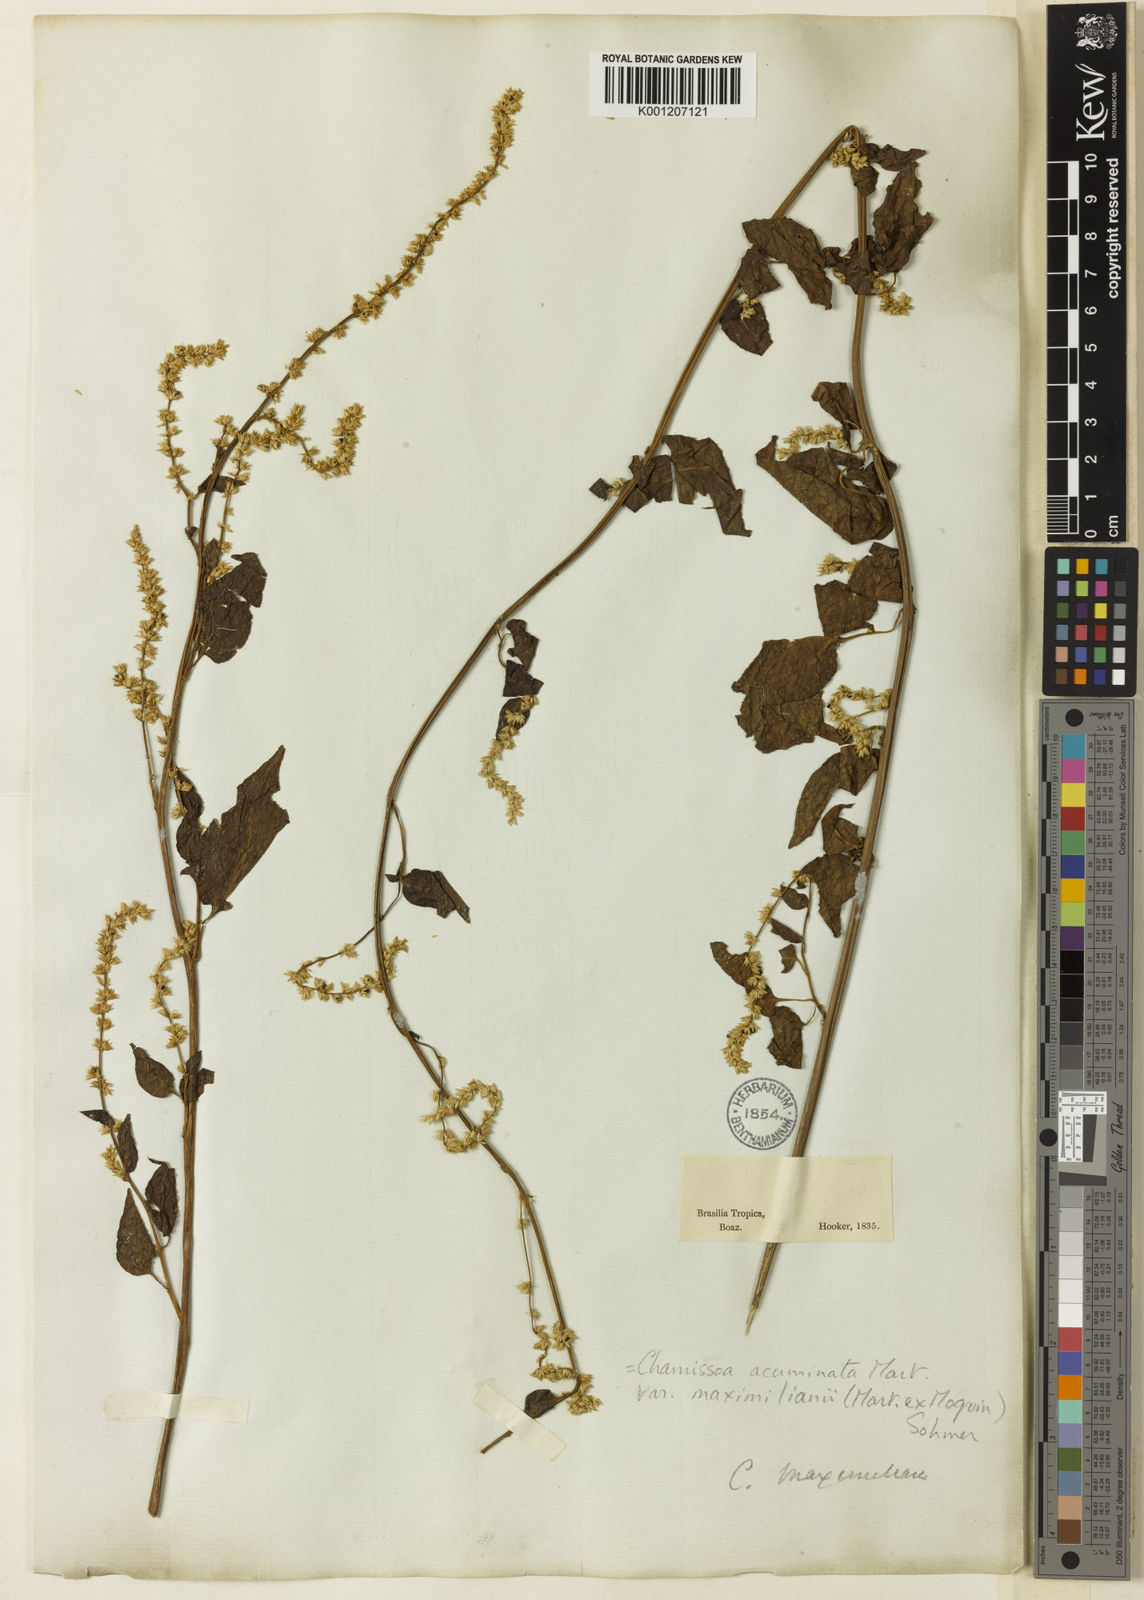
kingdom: Plantae
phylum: Tracheophyta
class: Magnoliopsida
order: Caryophyllales
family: Amaranthaceae
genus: Chamissoa
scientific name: Chamissoa maximiliani
